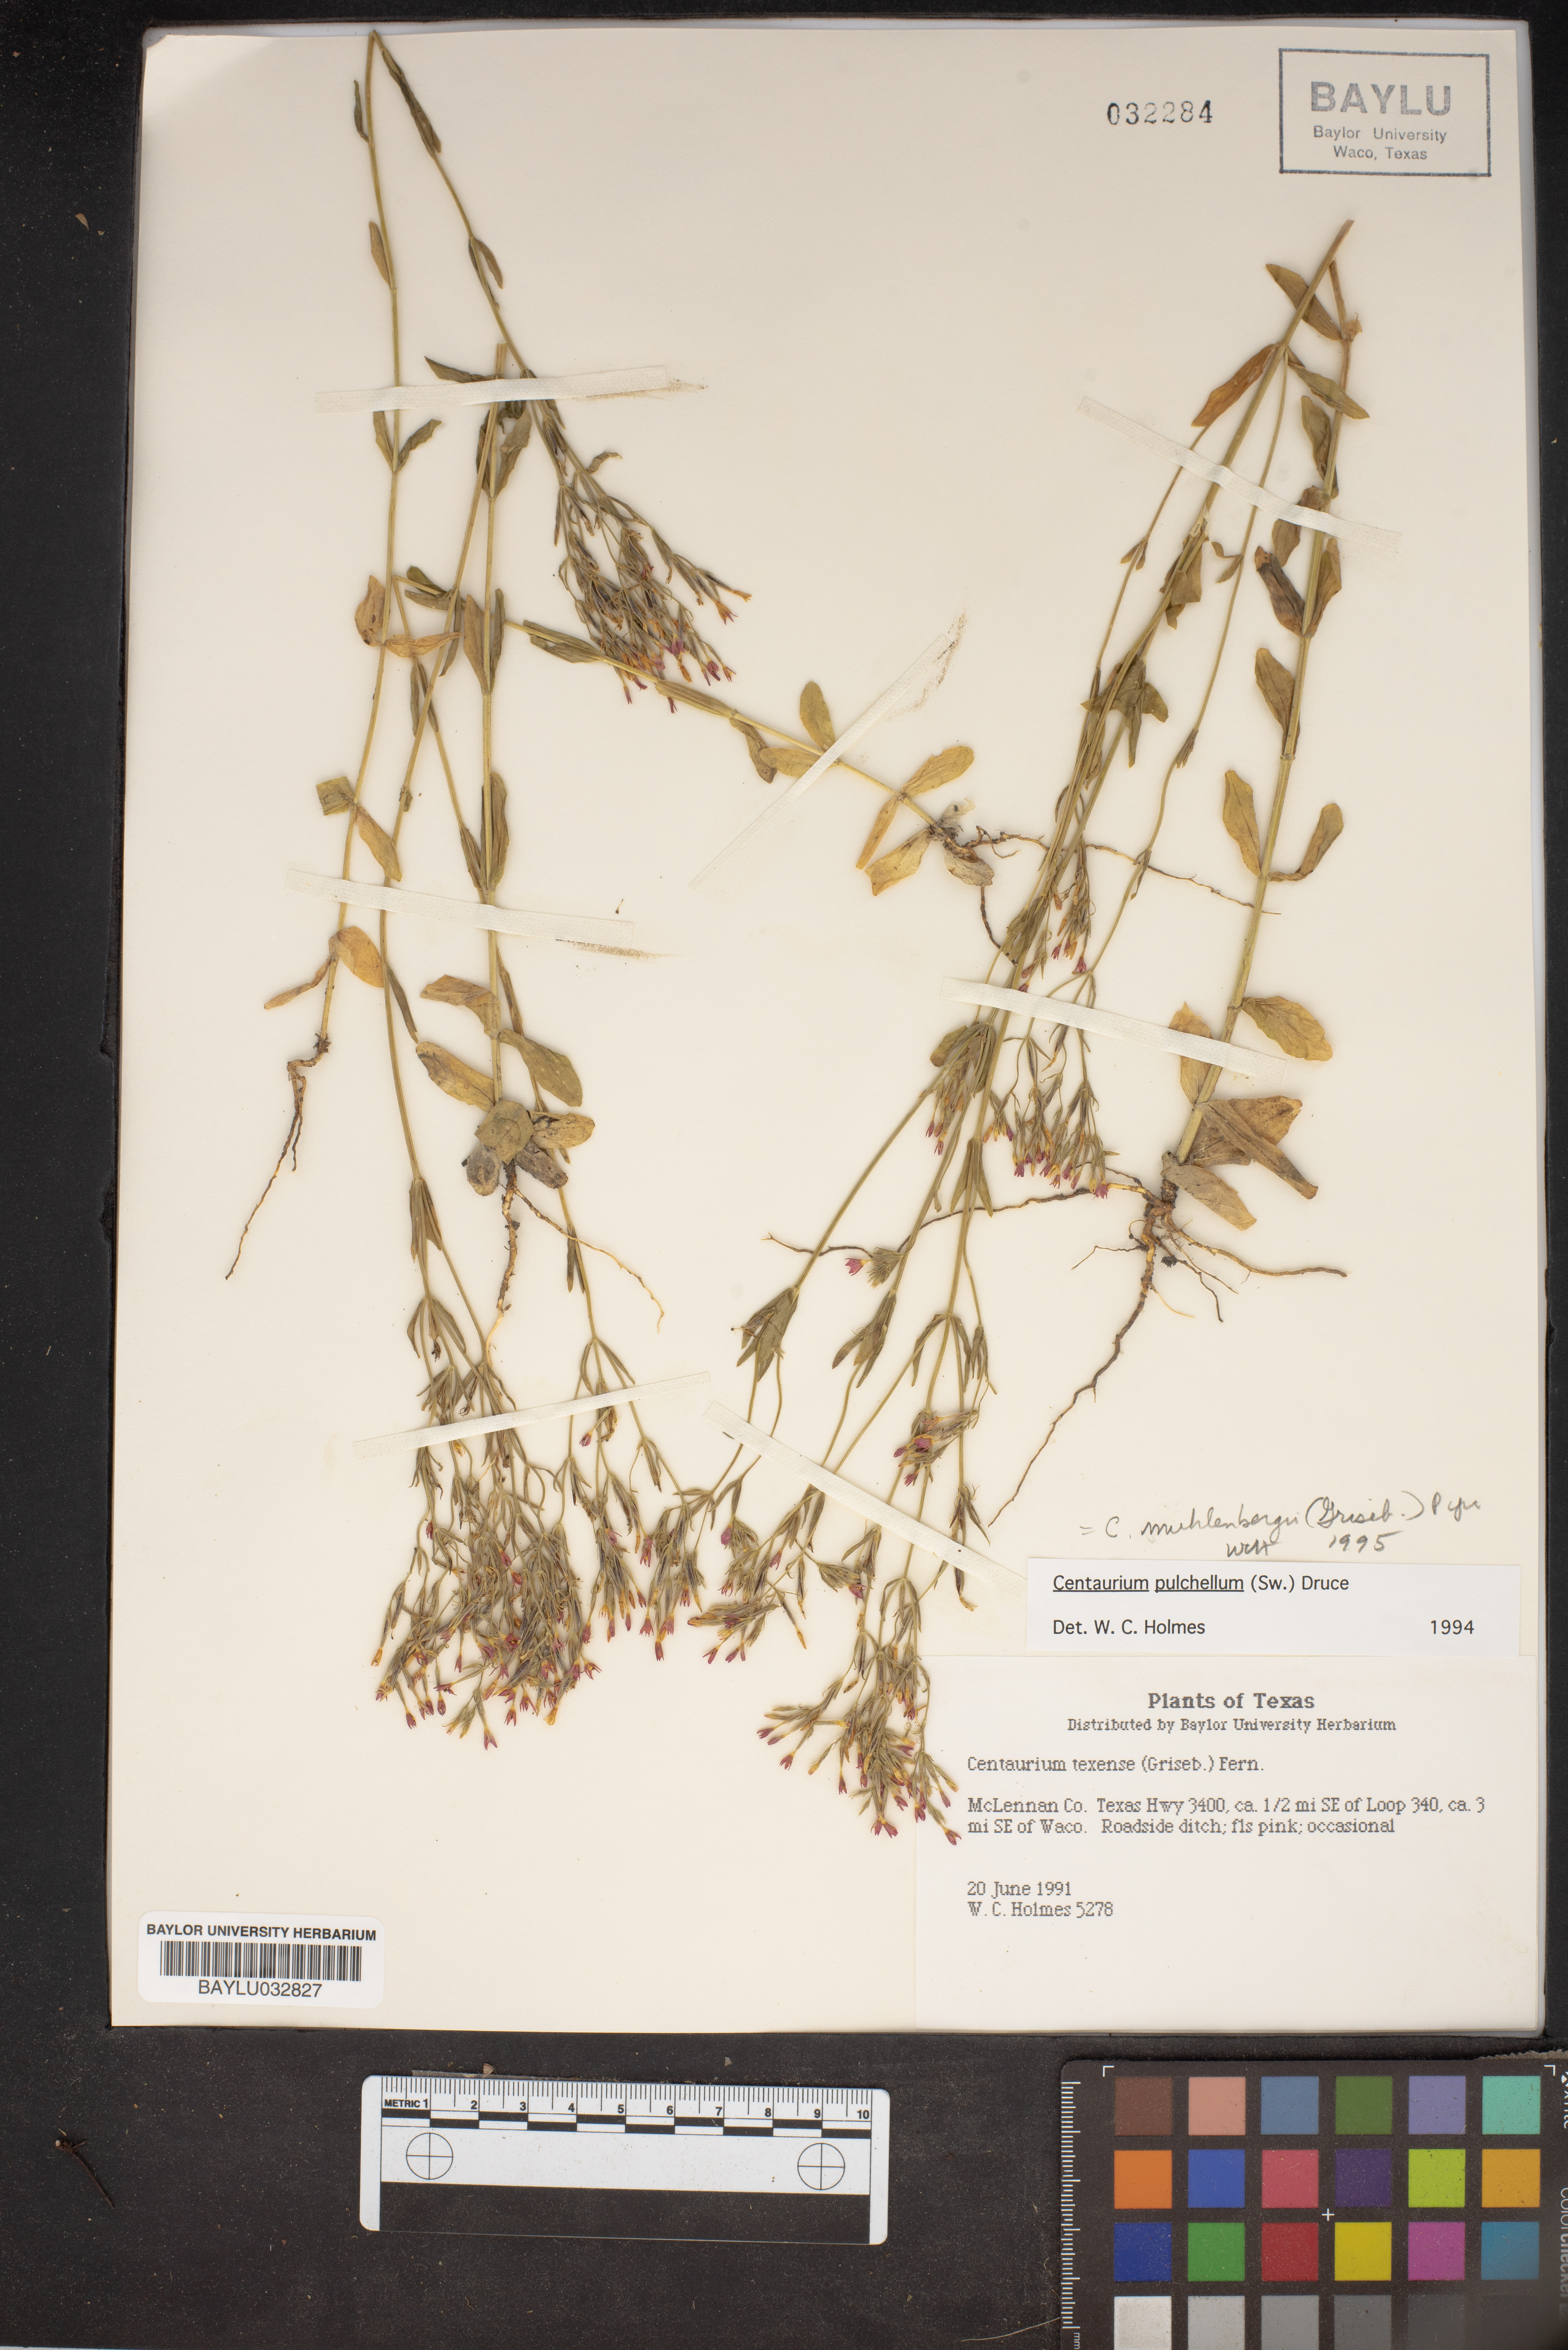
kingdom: Plantae
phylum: Tracheophyta
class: Magnoliopsida
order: Gentianales
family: Gentianaceae
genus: Zeltnera
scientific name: Zeltnera texensis
